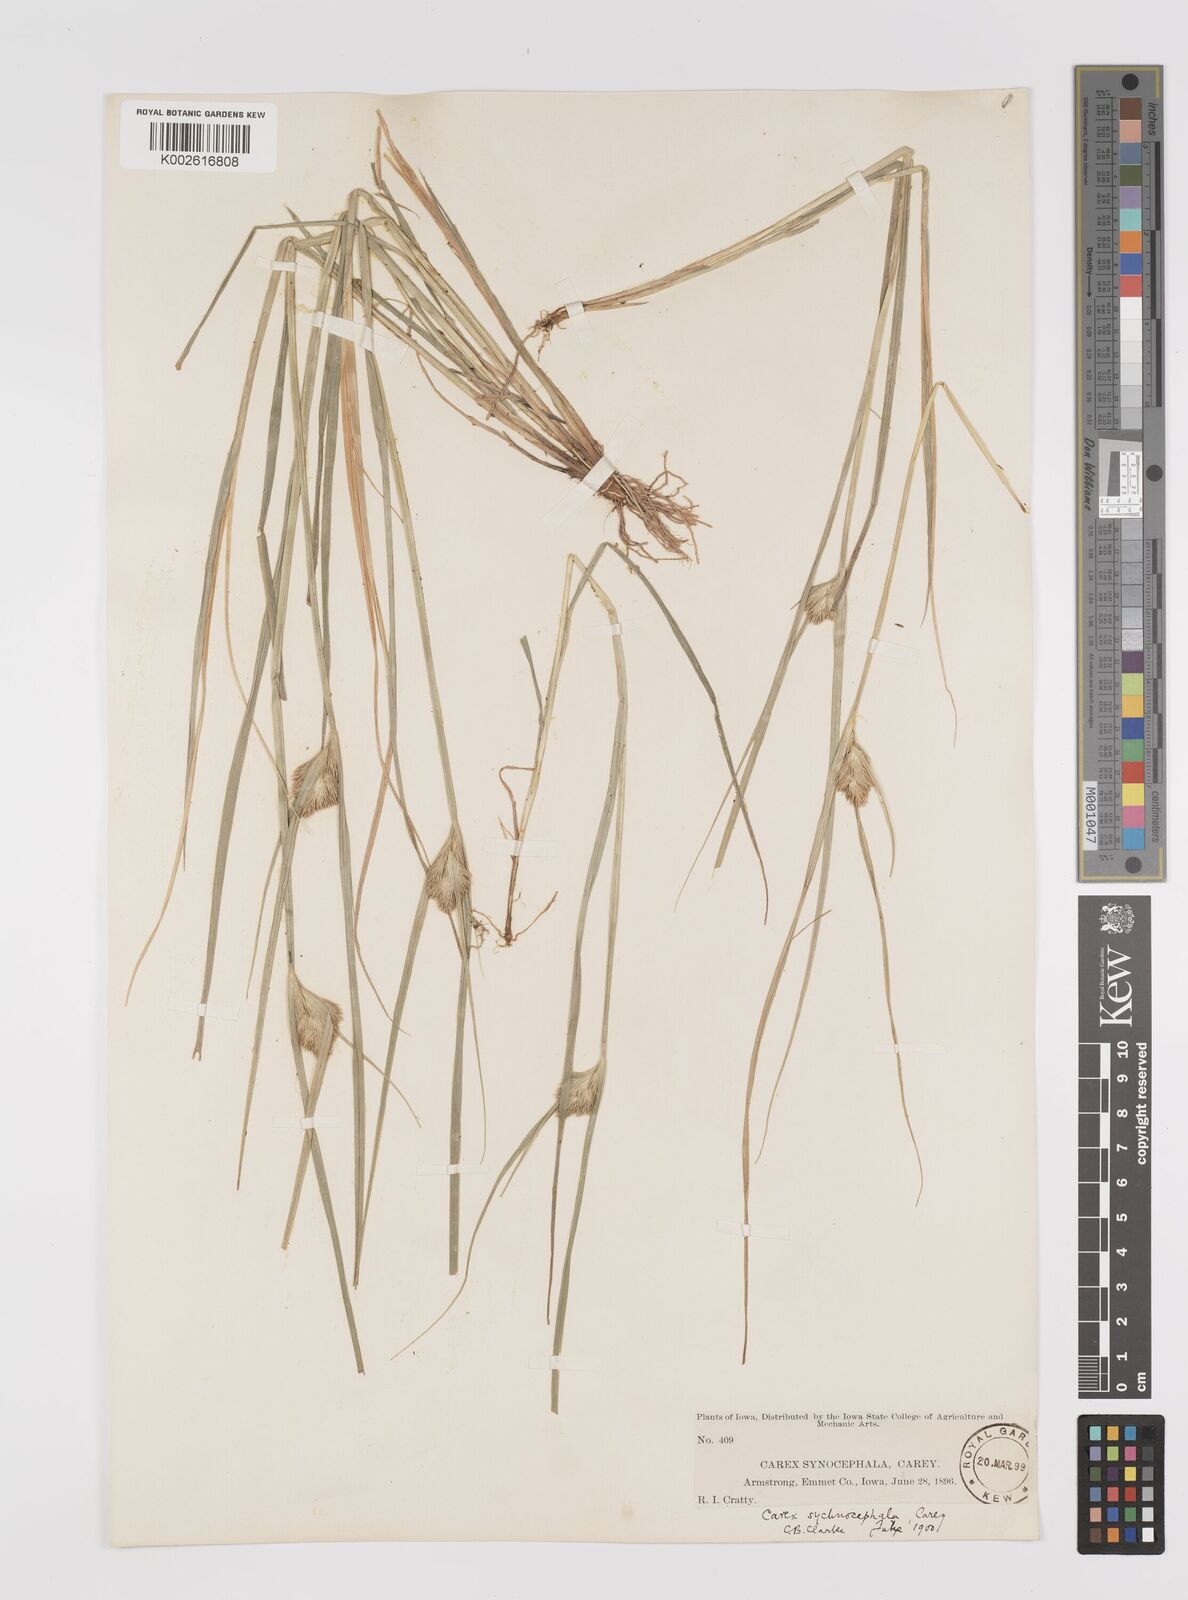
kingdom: Plantae
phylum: Tracheophyta
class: Liliopsida
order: Poales
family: Cyperaceae
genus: Carex
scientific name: Carex sychnocephala
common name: Dense long-beaked sedge
